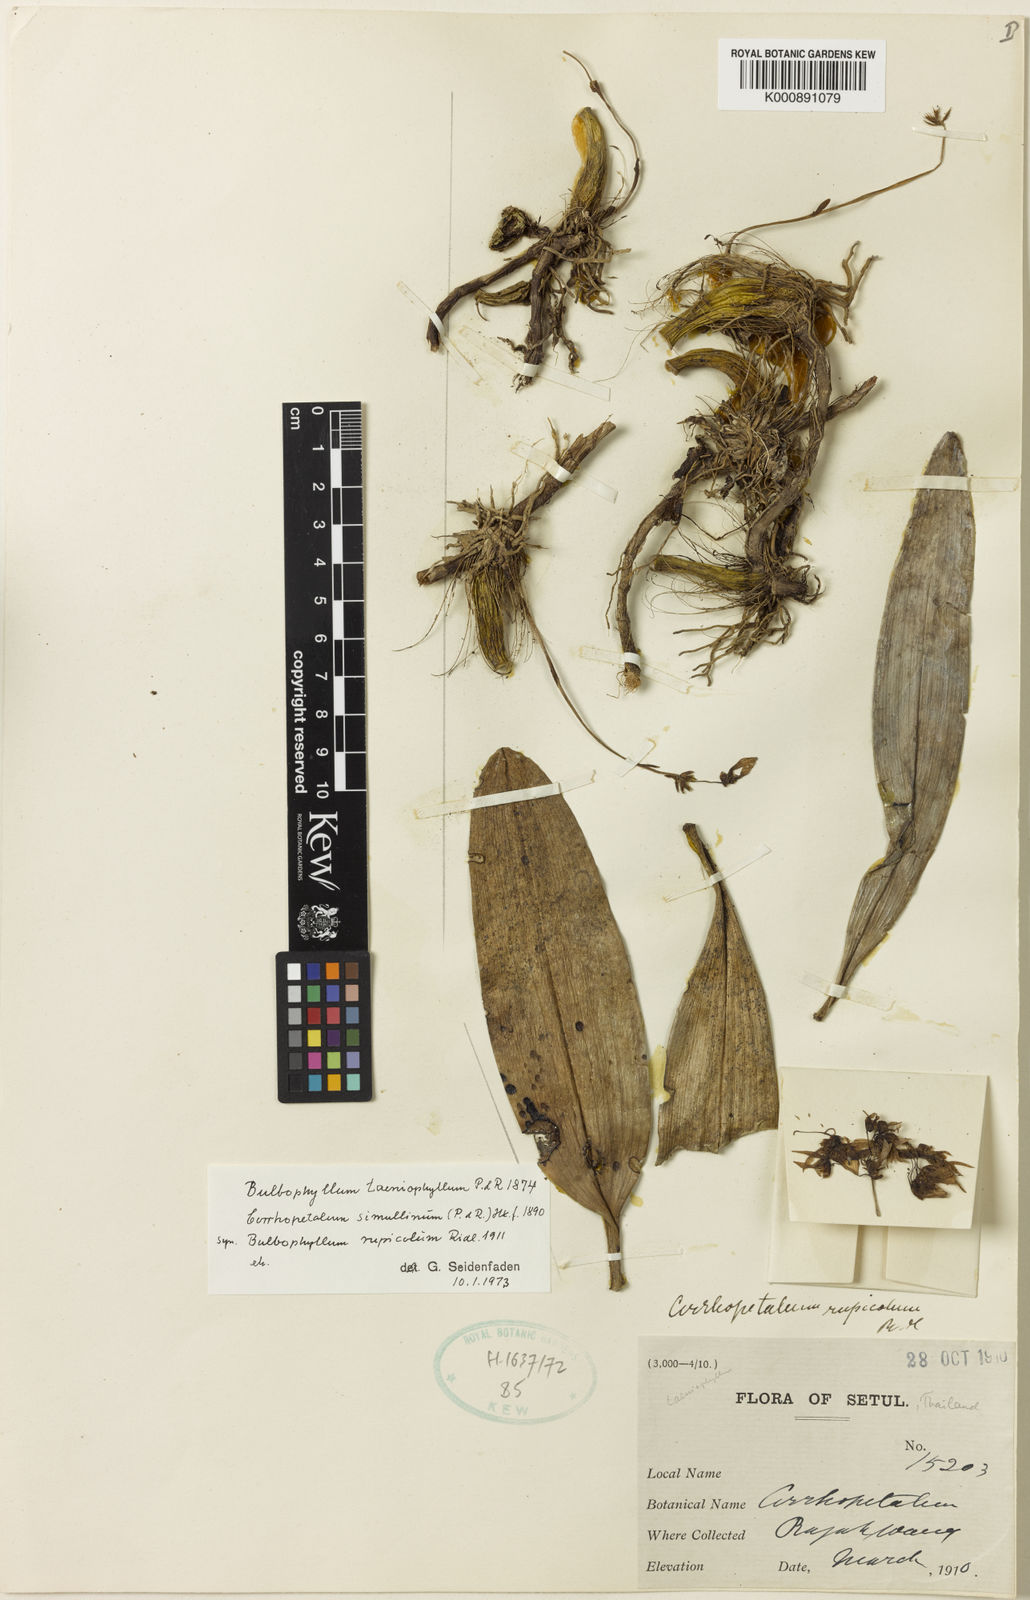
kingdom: Plantae
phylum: Tracheophyta
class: Liliopsida
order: Asparagales
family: Orchidaceae
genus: Bulbophyllum
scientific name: Bulbophyllum taeniophyllum
